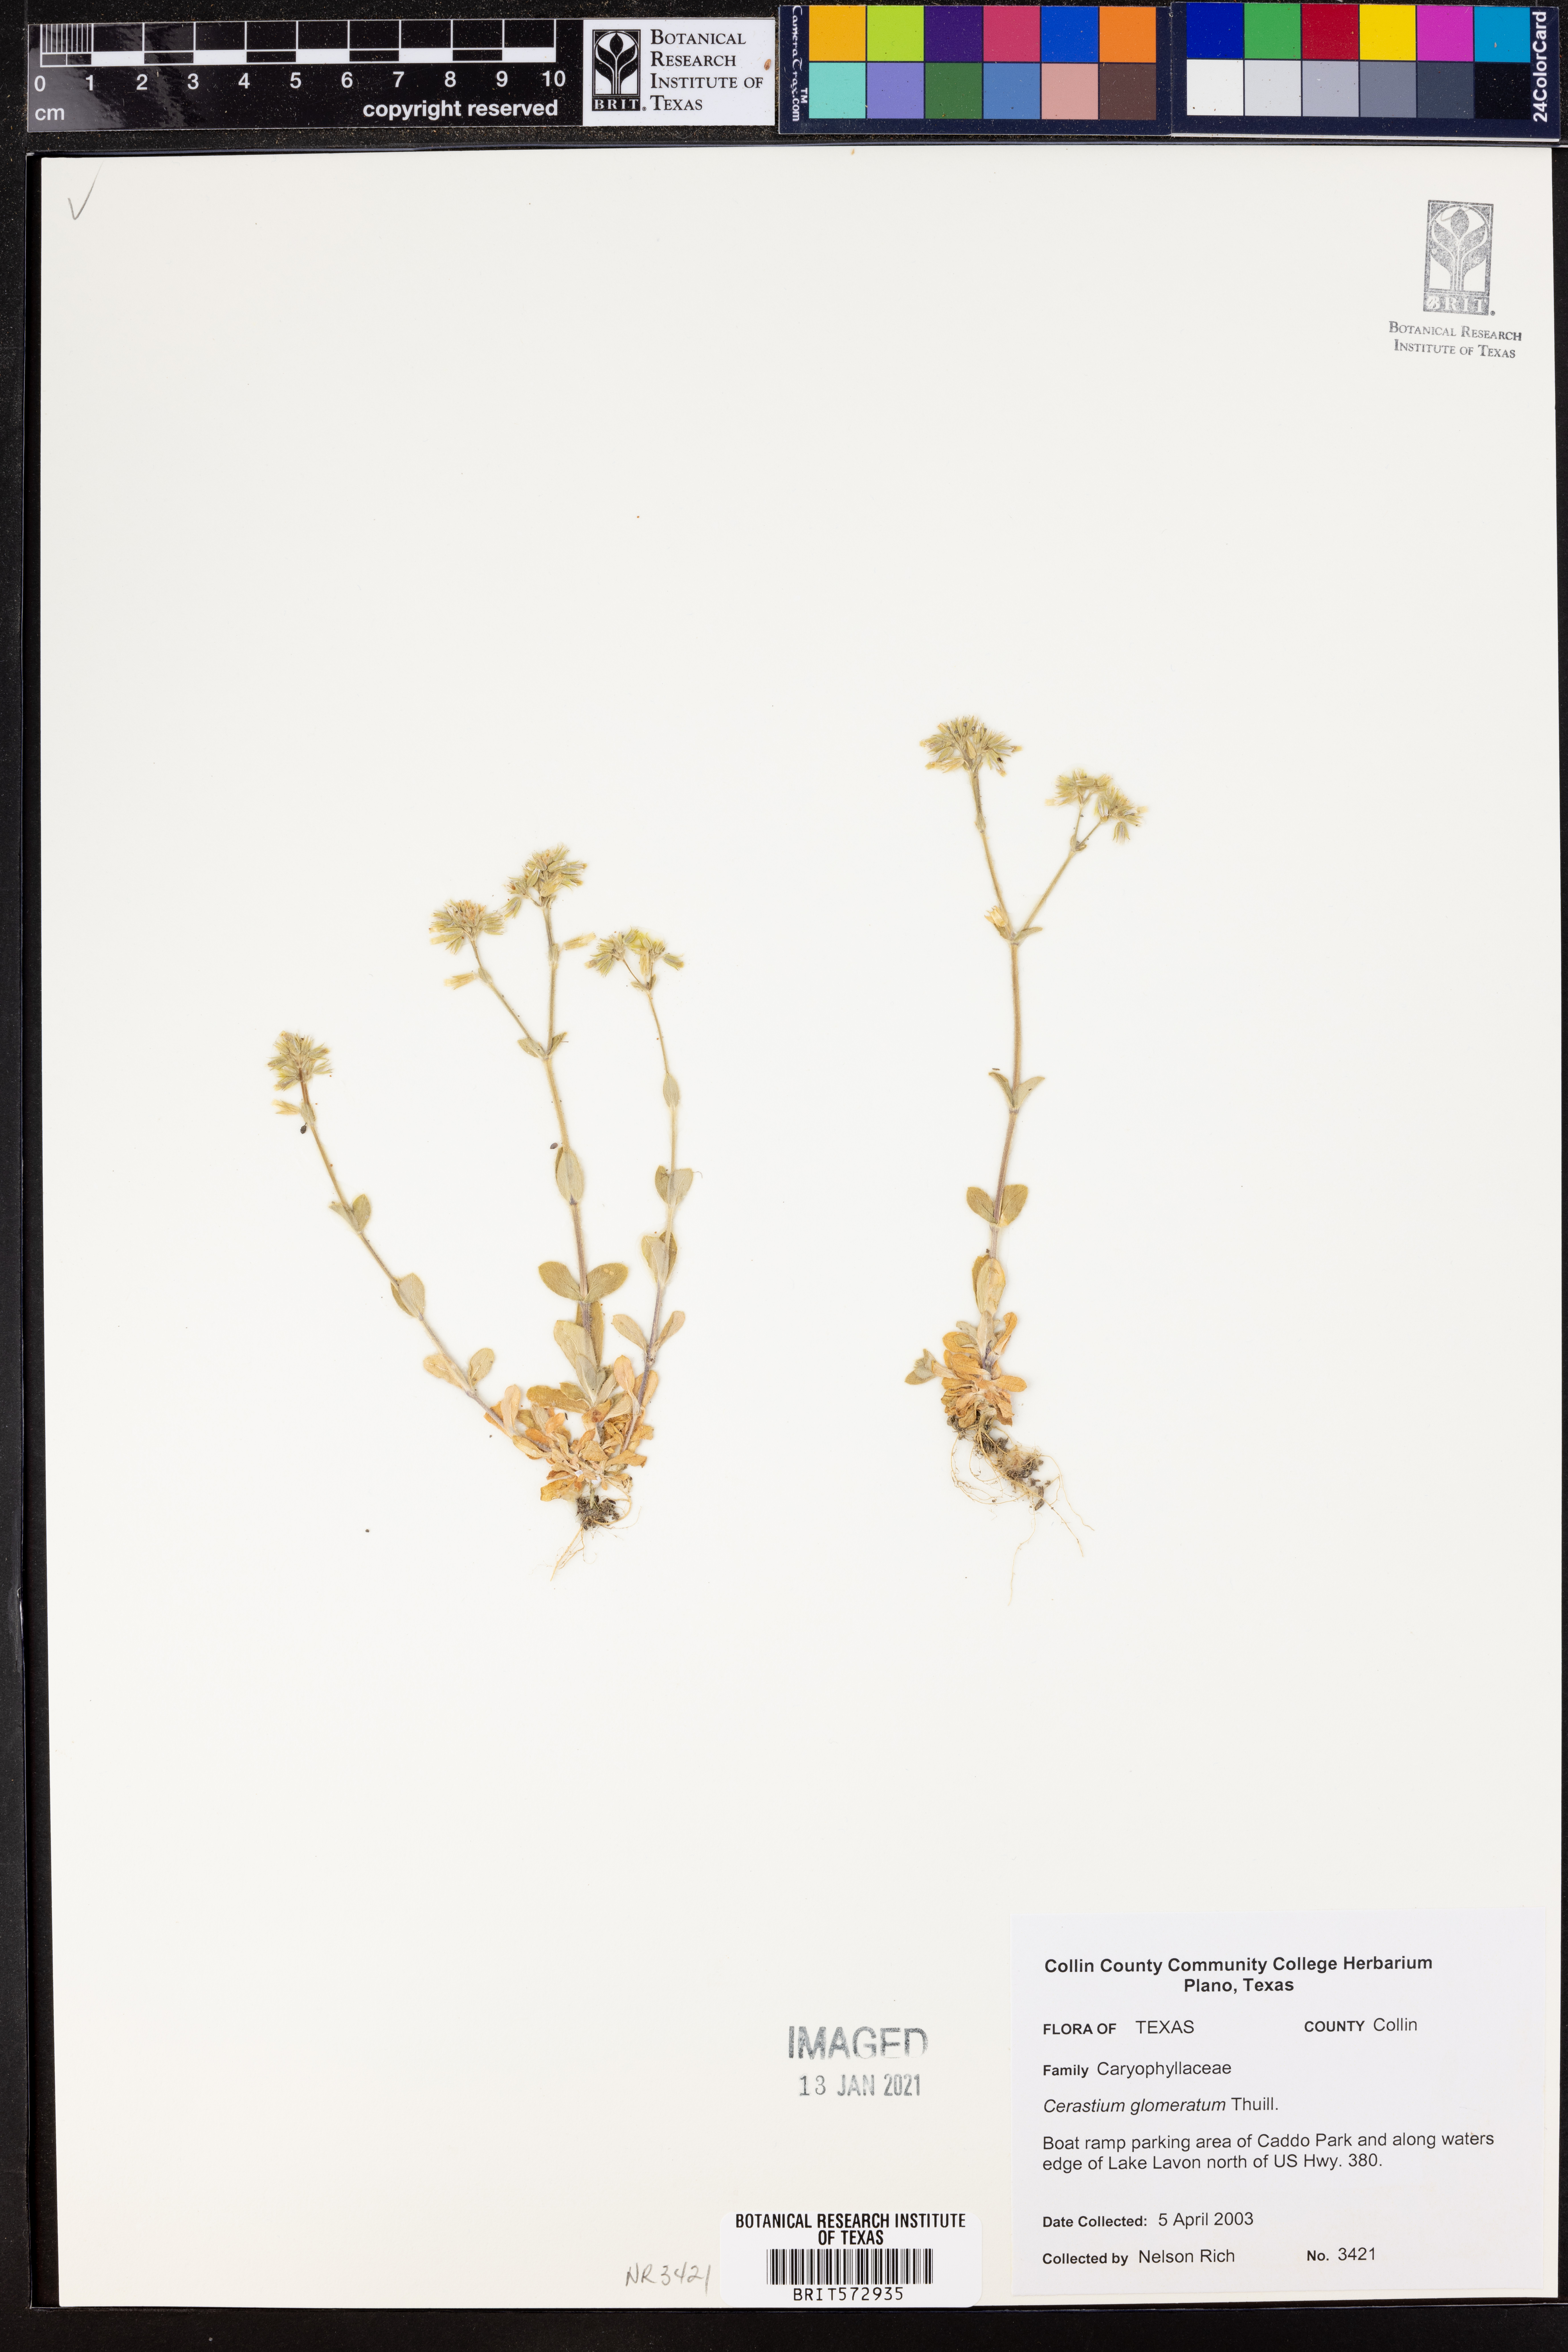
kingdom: Plantae
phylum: Tracheophyta
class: Magnoliopsida
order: Caryophyllales
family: Caryophyllaceae
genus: Cerastium
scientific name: Cerastium glomeratum
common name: Sticky chickweed
